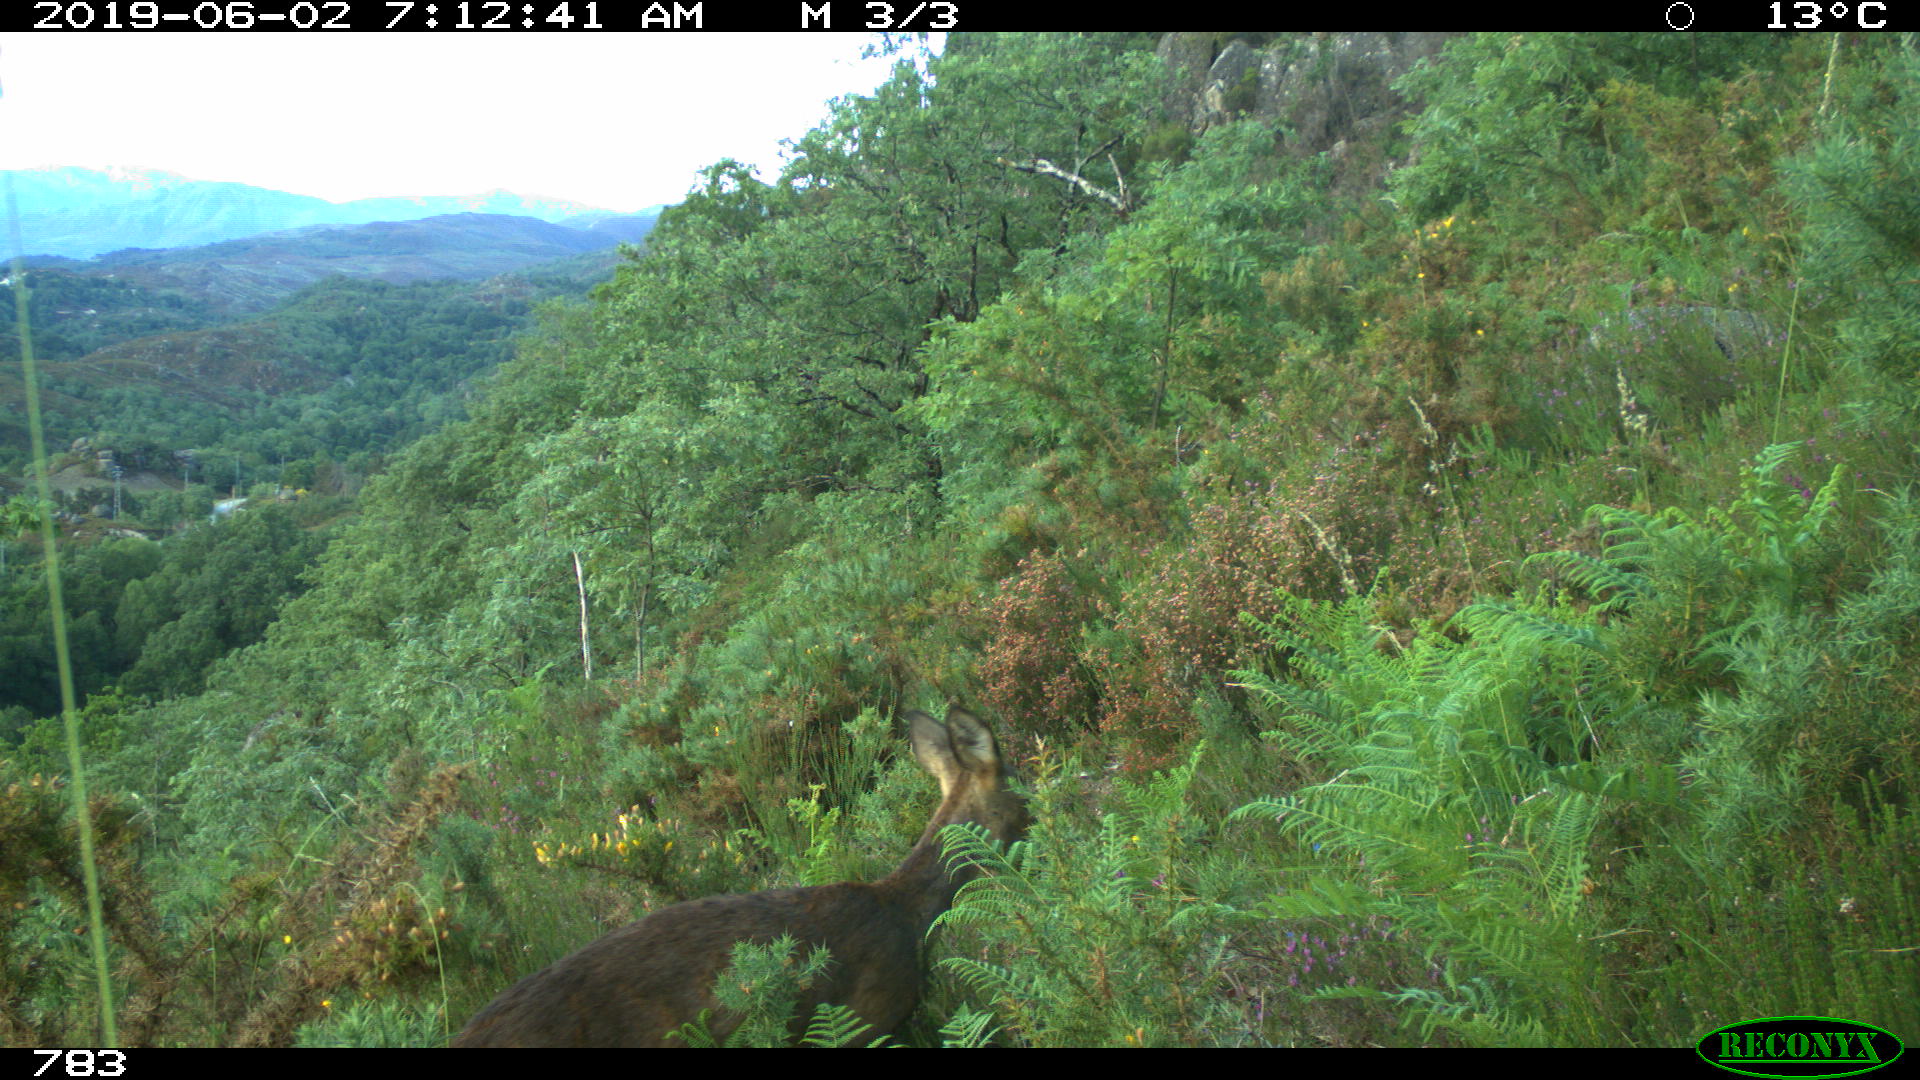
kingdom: Animalia
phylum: Chordata
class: Mammalia
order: Artiodactyla
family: Cervidae
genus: Capreolus
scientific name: Capreolus capreolus
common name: Western roe deer
